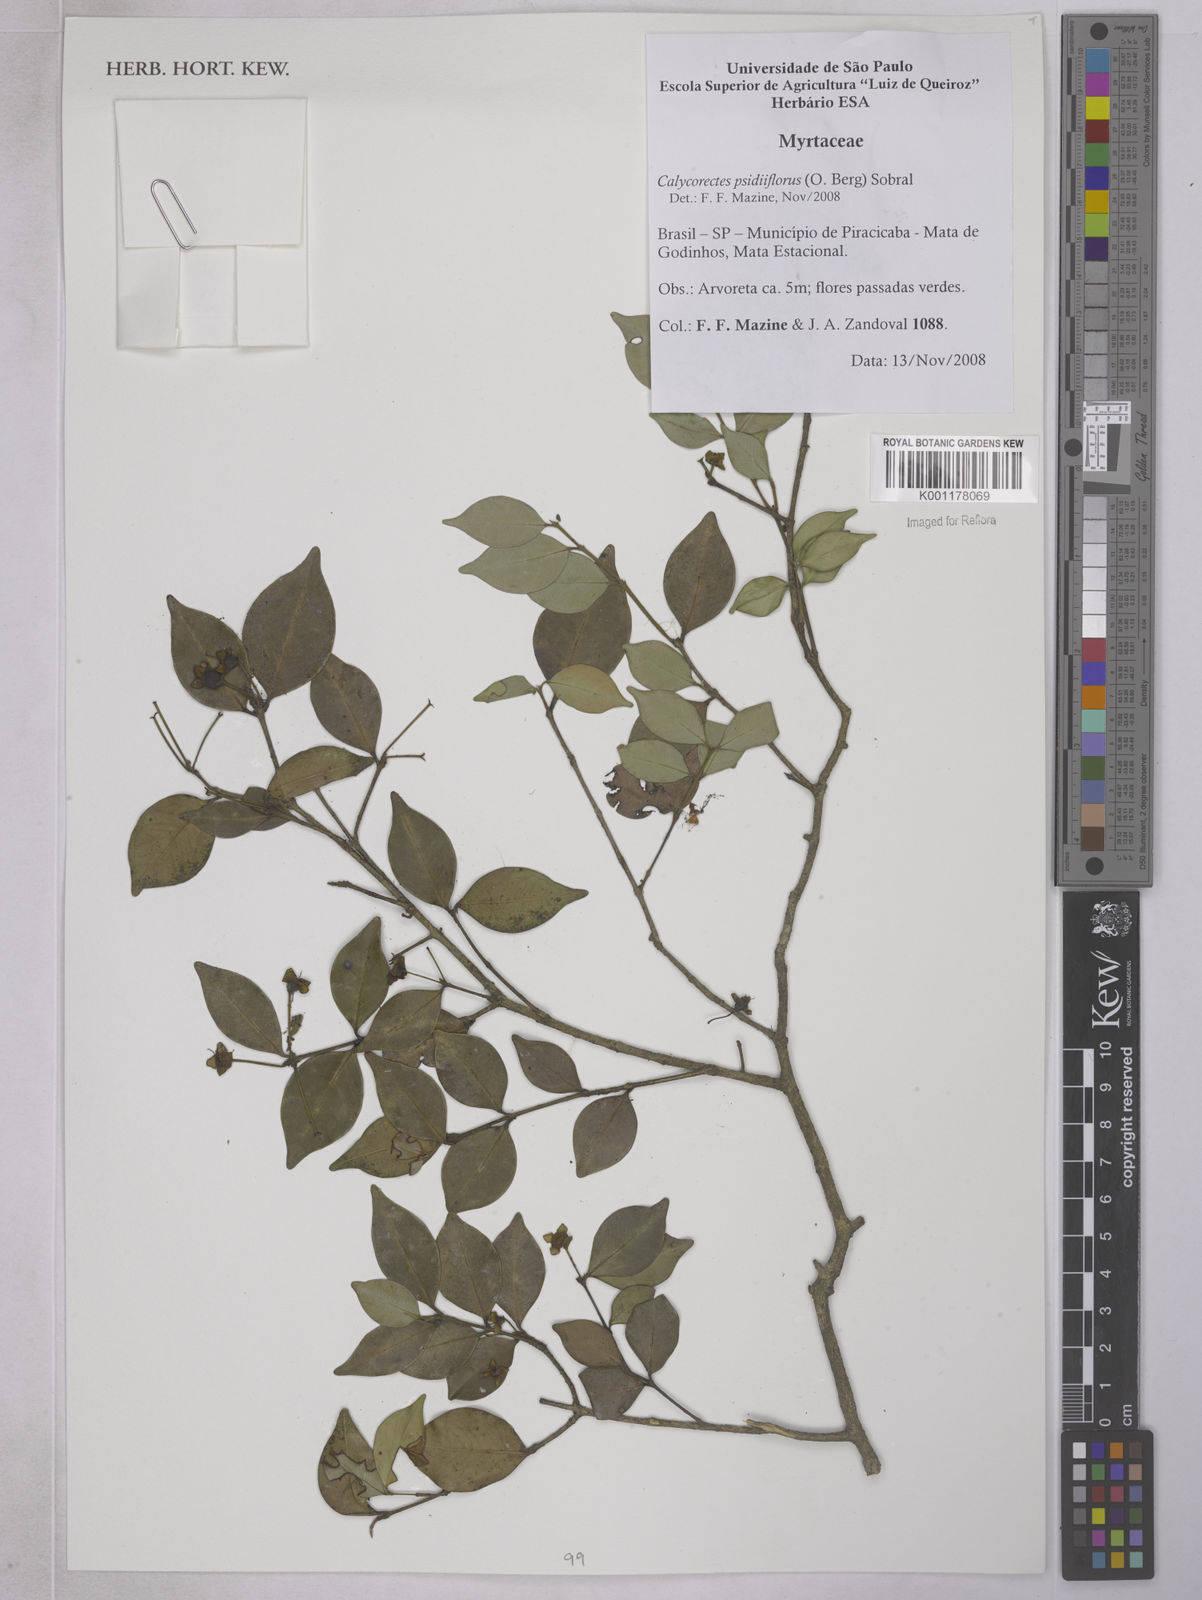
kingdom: Plantae
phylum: Tracheophyta
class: Magnoliopsida
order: Myrtales
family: Myrtaceae
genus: Eugenia
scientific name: Eugenia subterminalis
